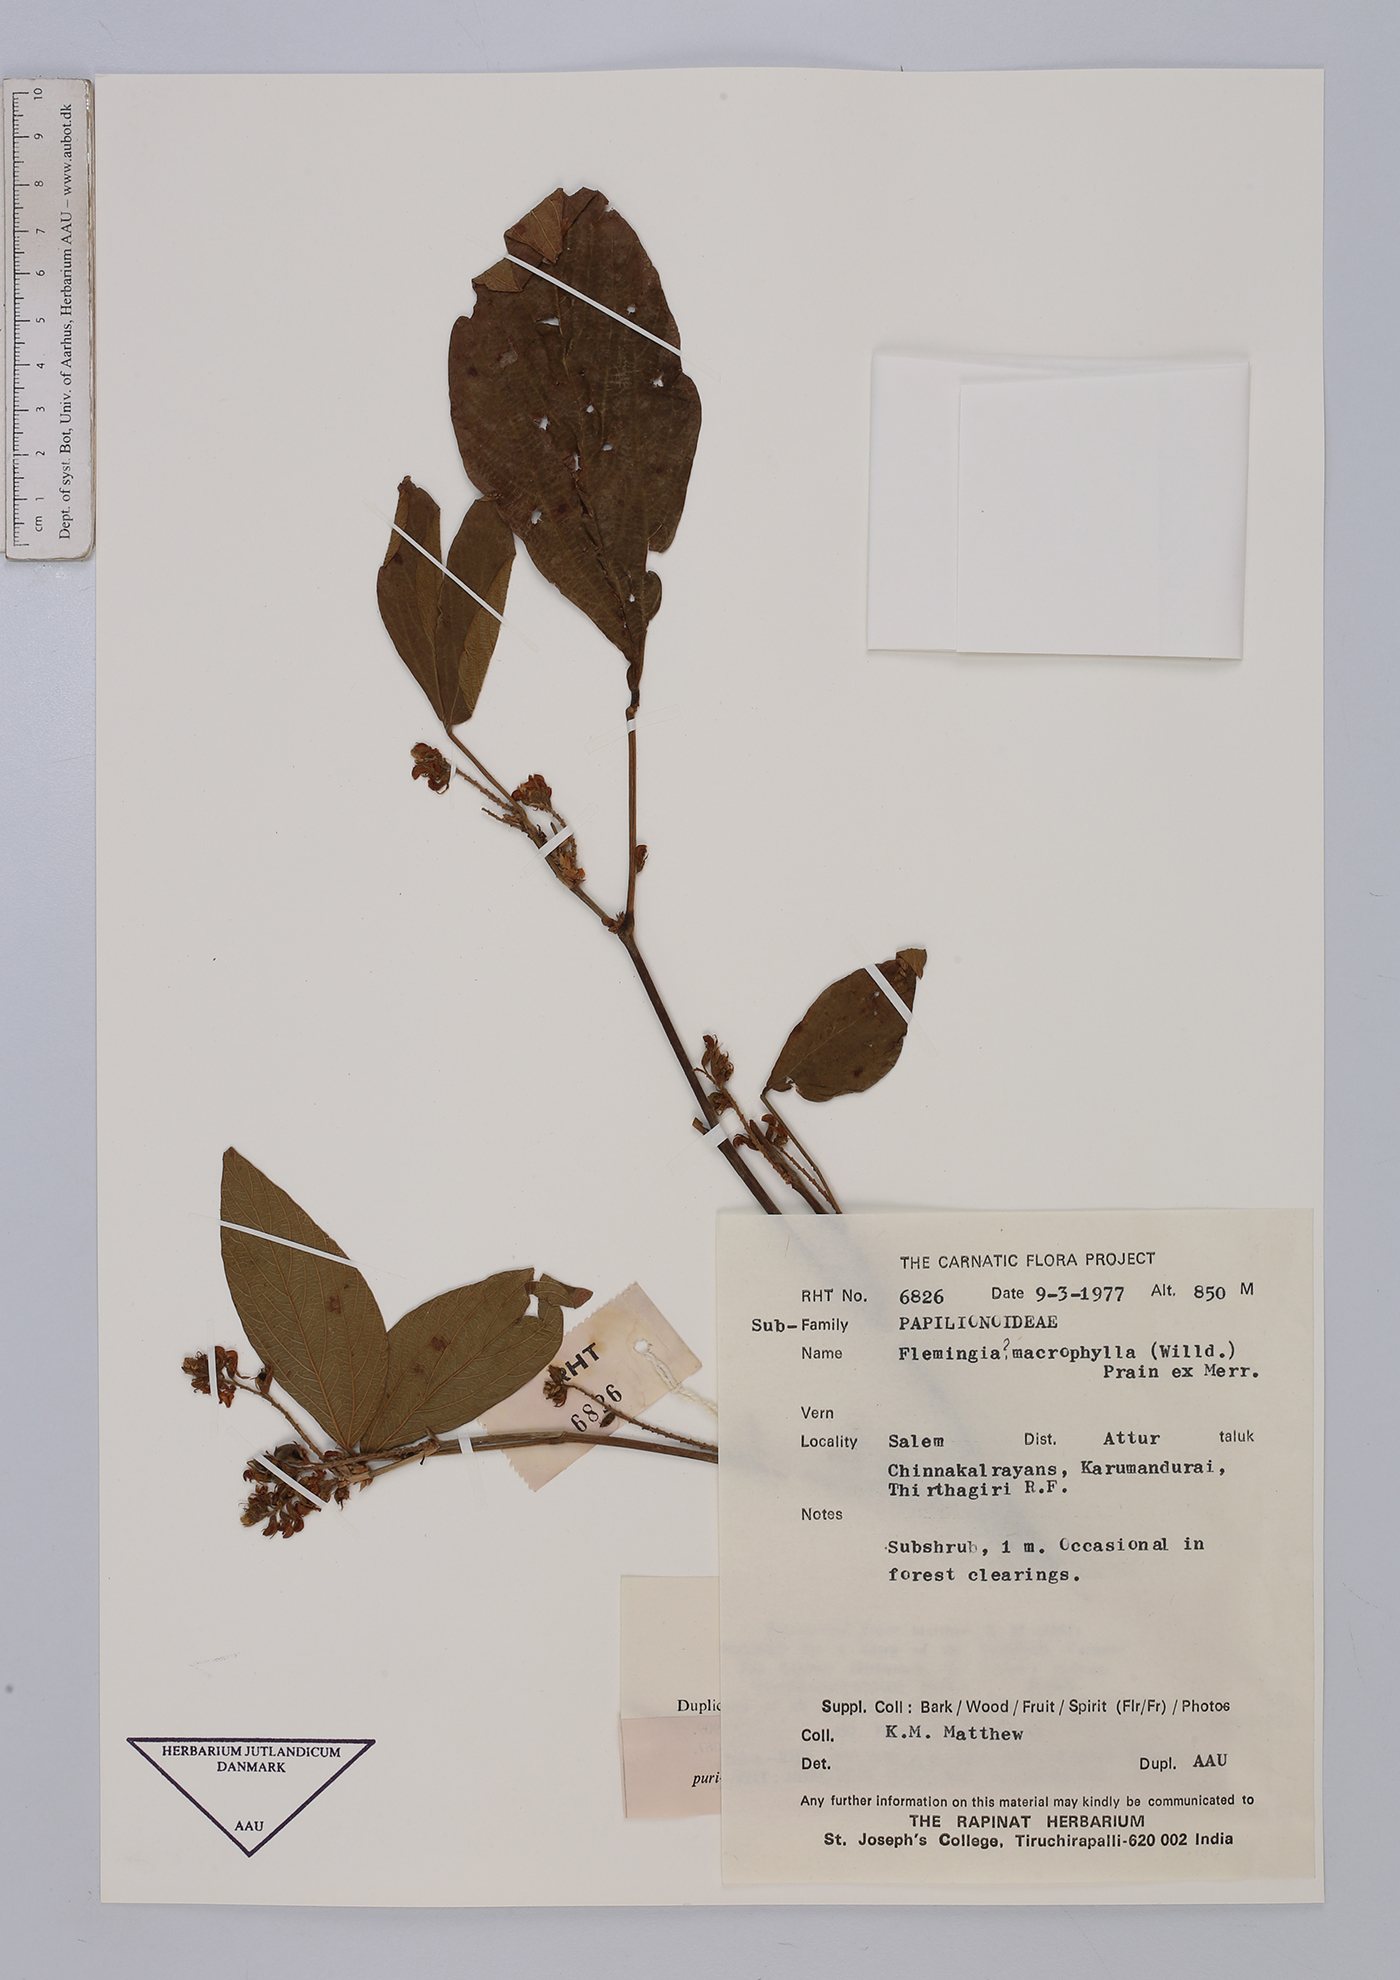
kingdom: Plantae
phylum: Tracheophyta
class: Magnoliopsida
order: Fabales
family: Fabaceae
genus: Flemingia
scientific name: Flemingia macrophylla
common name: Flemingia
